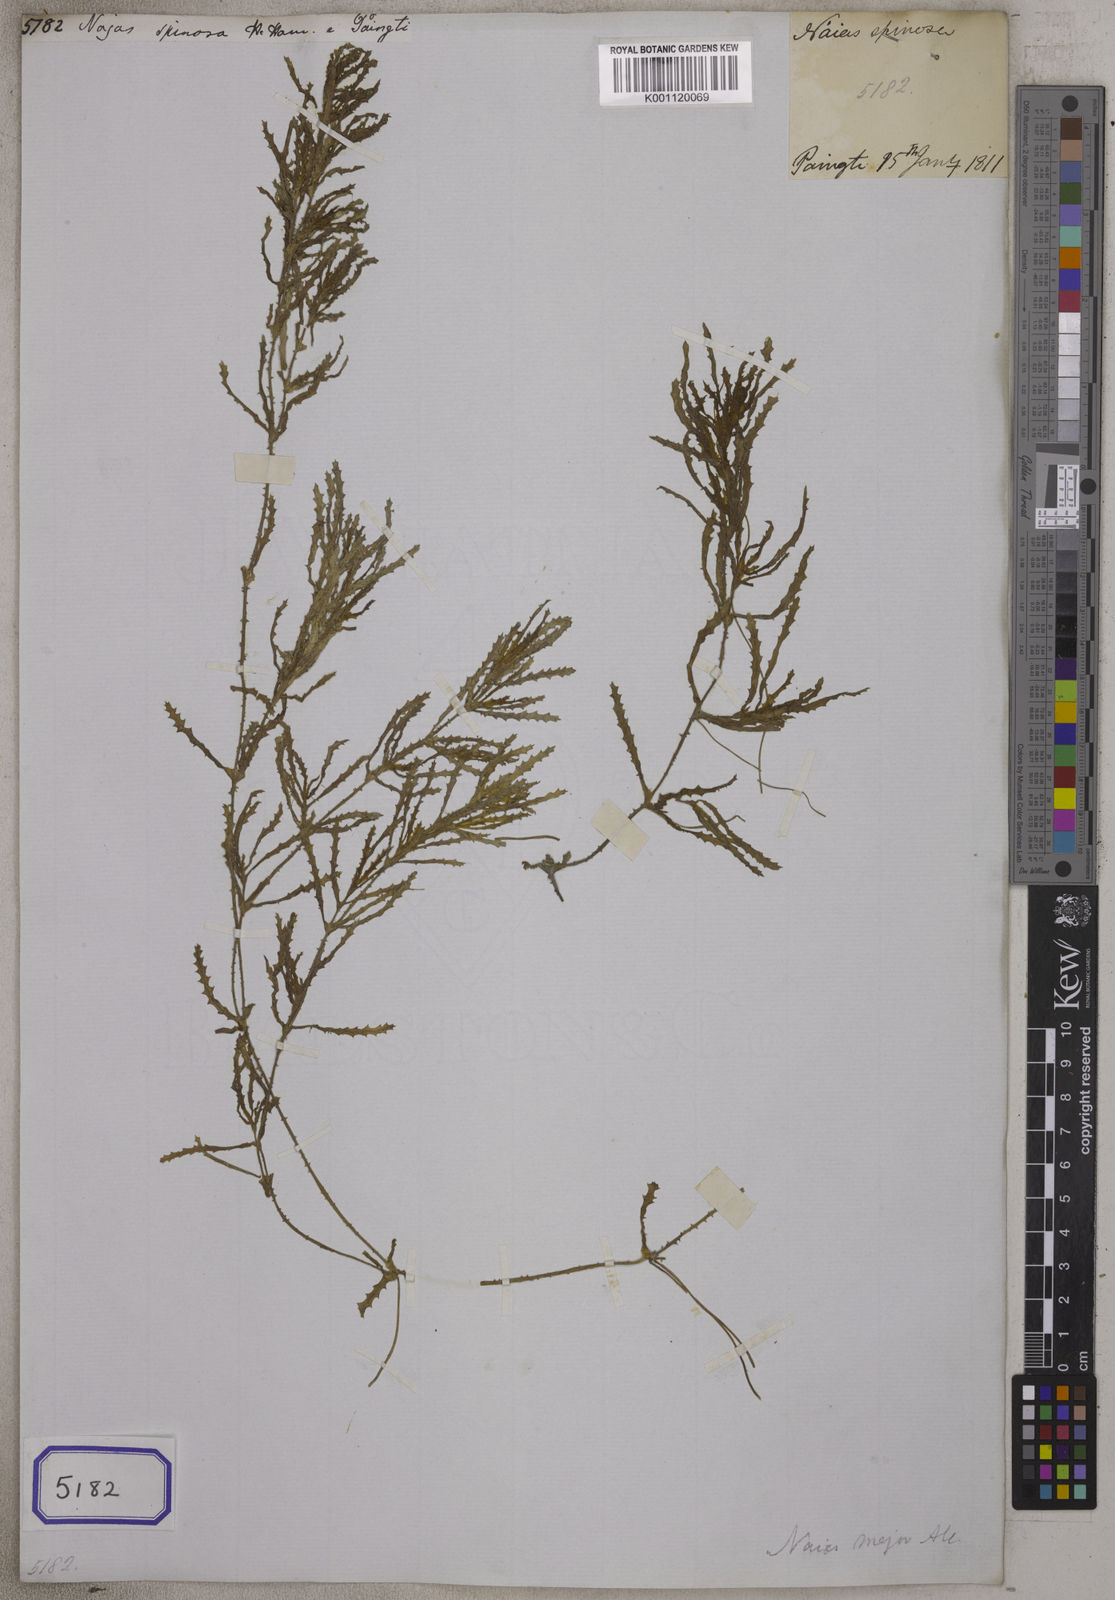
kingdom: Plantae
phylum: Tracheophyta
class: Liliopsida
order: Alismatales
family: Hydrocharitaceae
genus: Najas
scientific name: Najas
